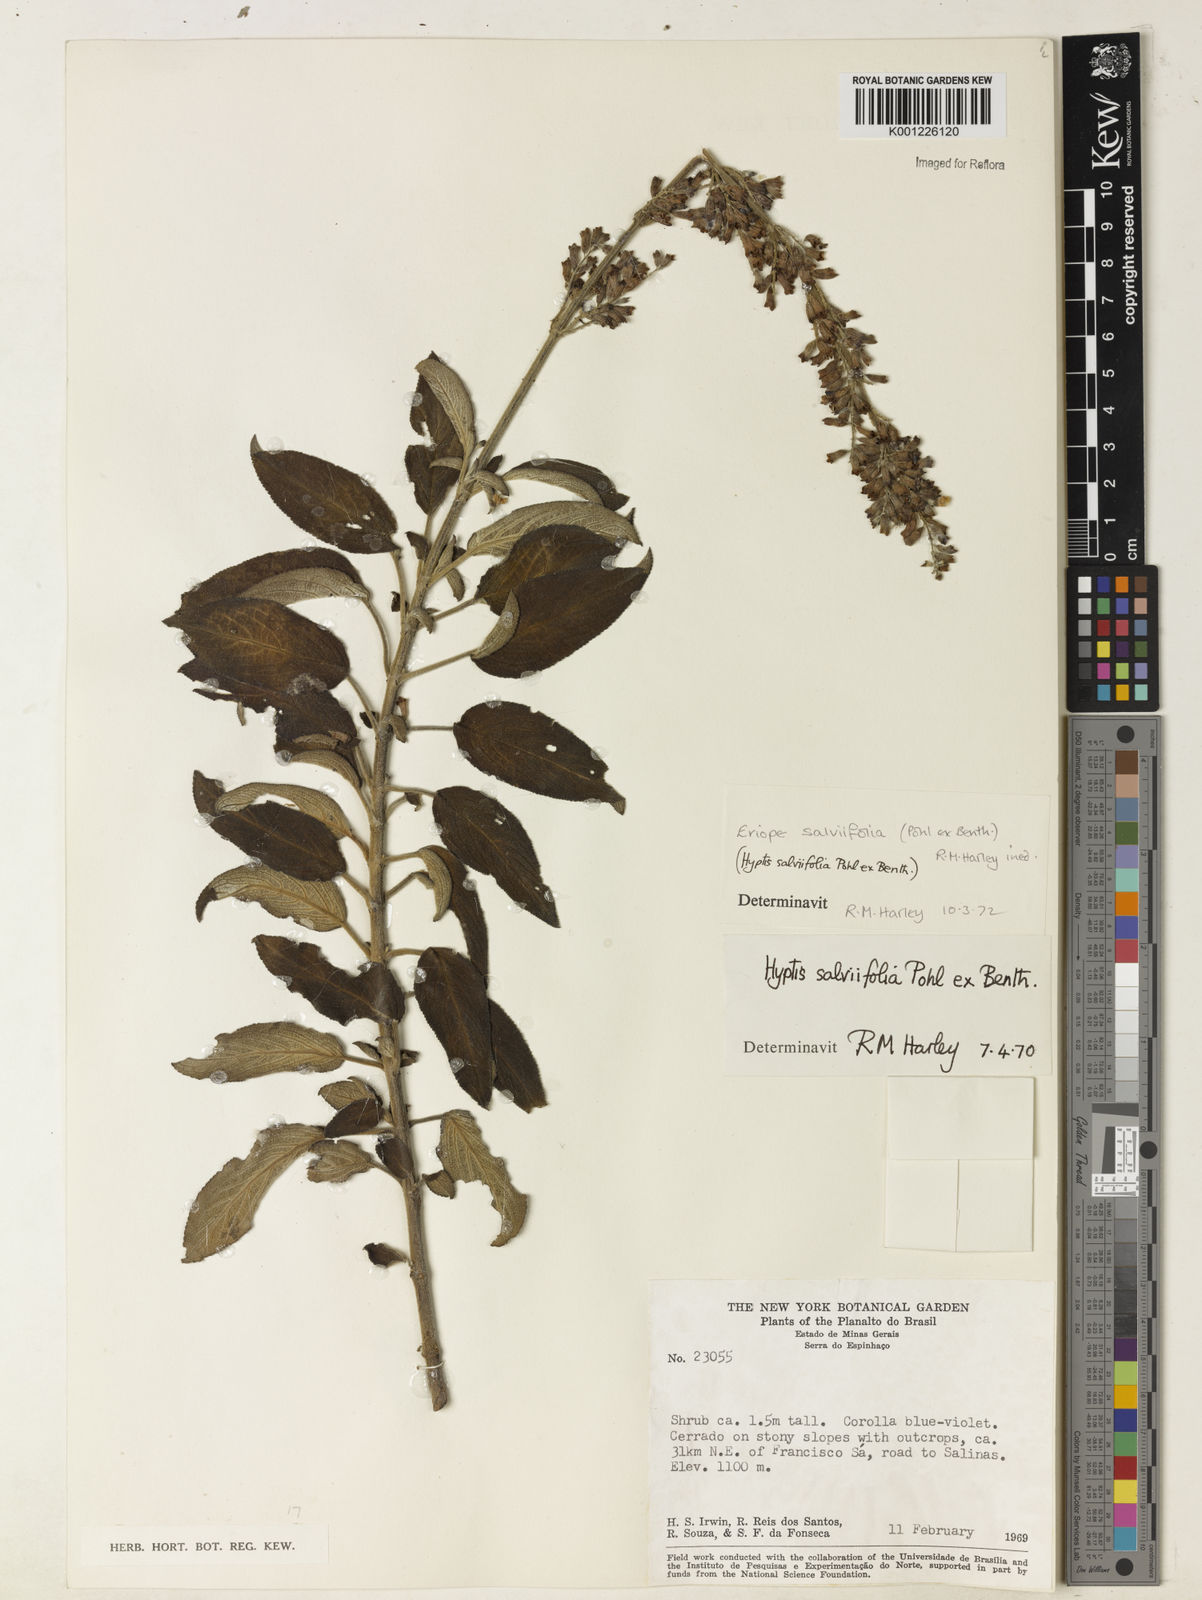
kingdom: Plantae
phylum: Tracheophyta
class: Magnoliopsida
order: Lamiales
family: Lamiaceae
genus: Eriope
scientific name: Eriope salviifolia
